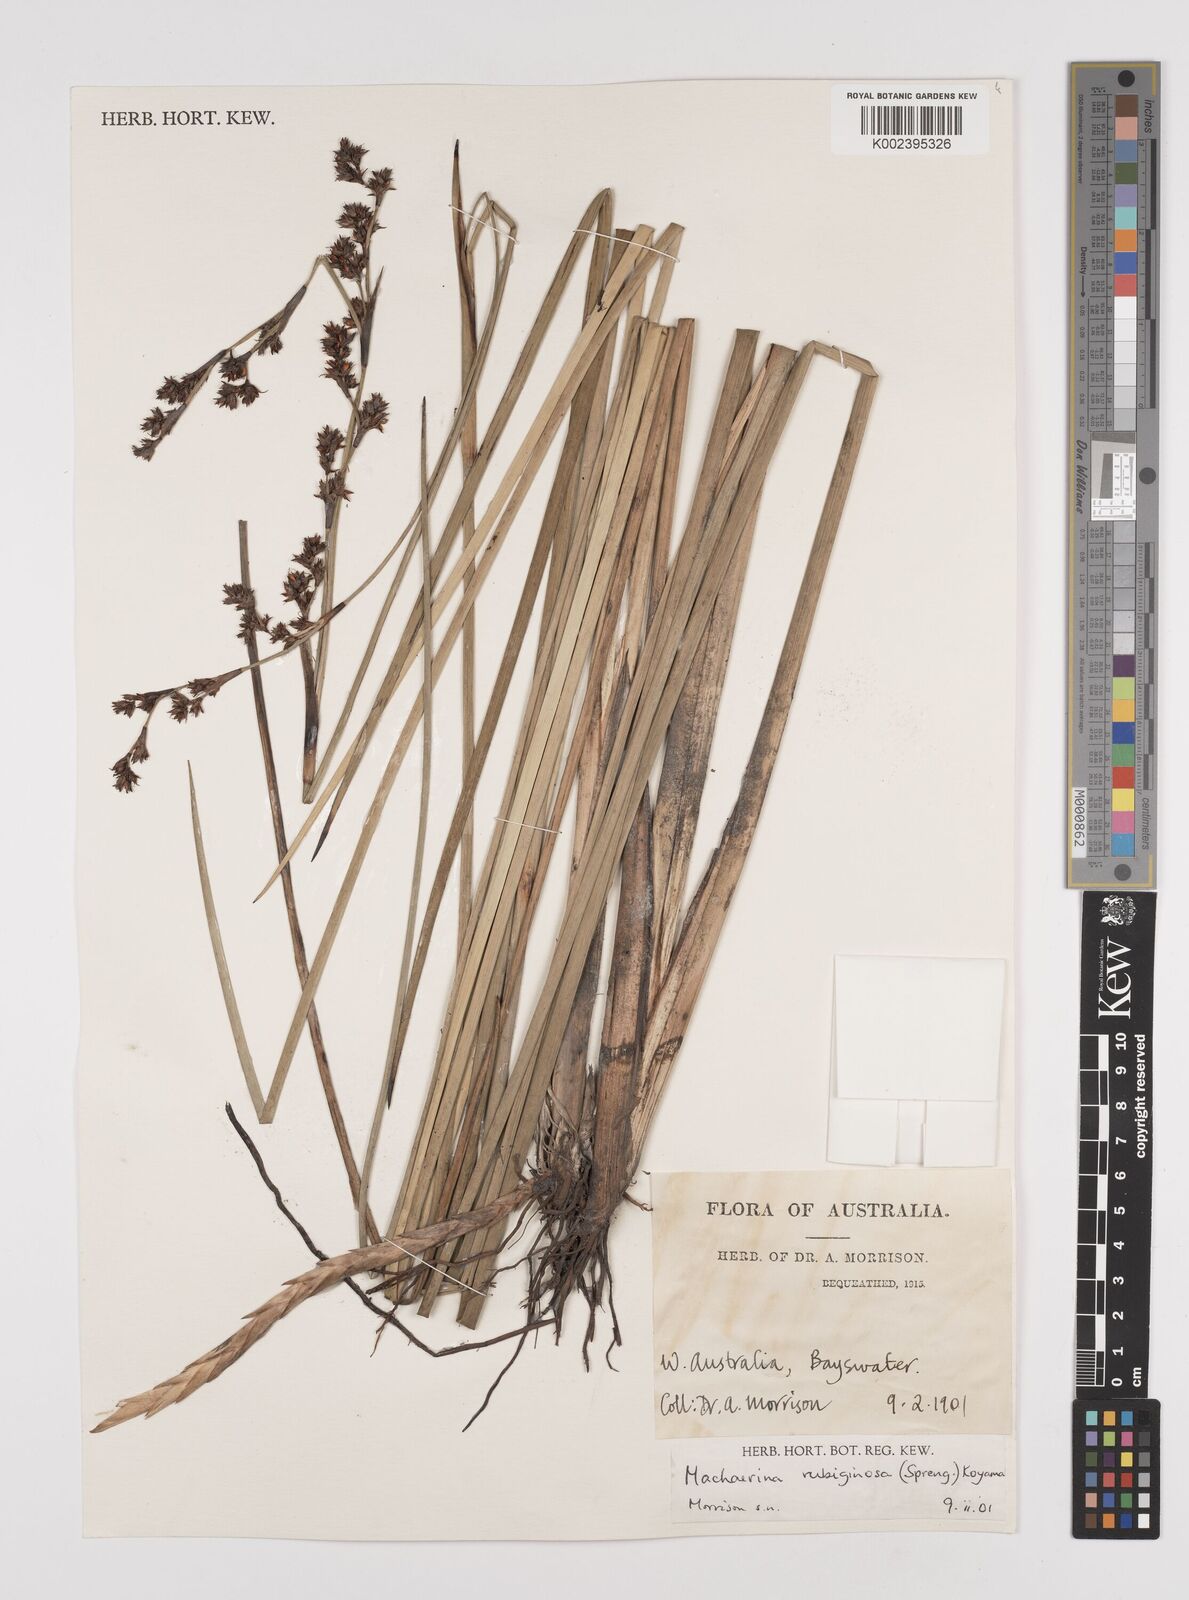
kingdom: Plantae
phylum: Tracheophyta
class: Liliopsida
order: Poales
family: Cyperaceae
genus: Machaerina
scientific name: Machaerina rubiginosa
